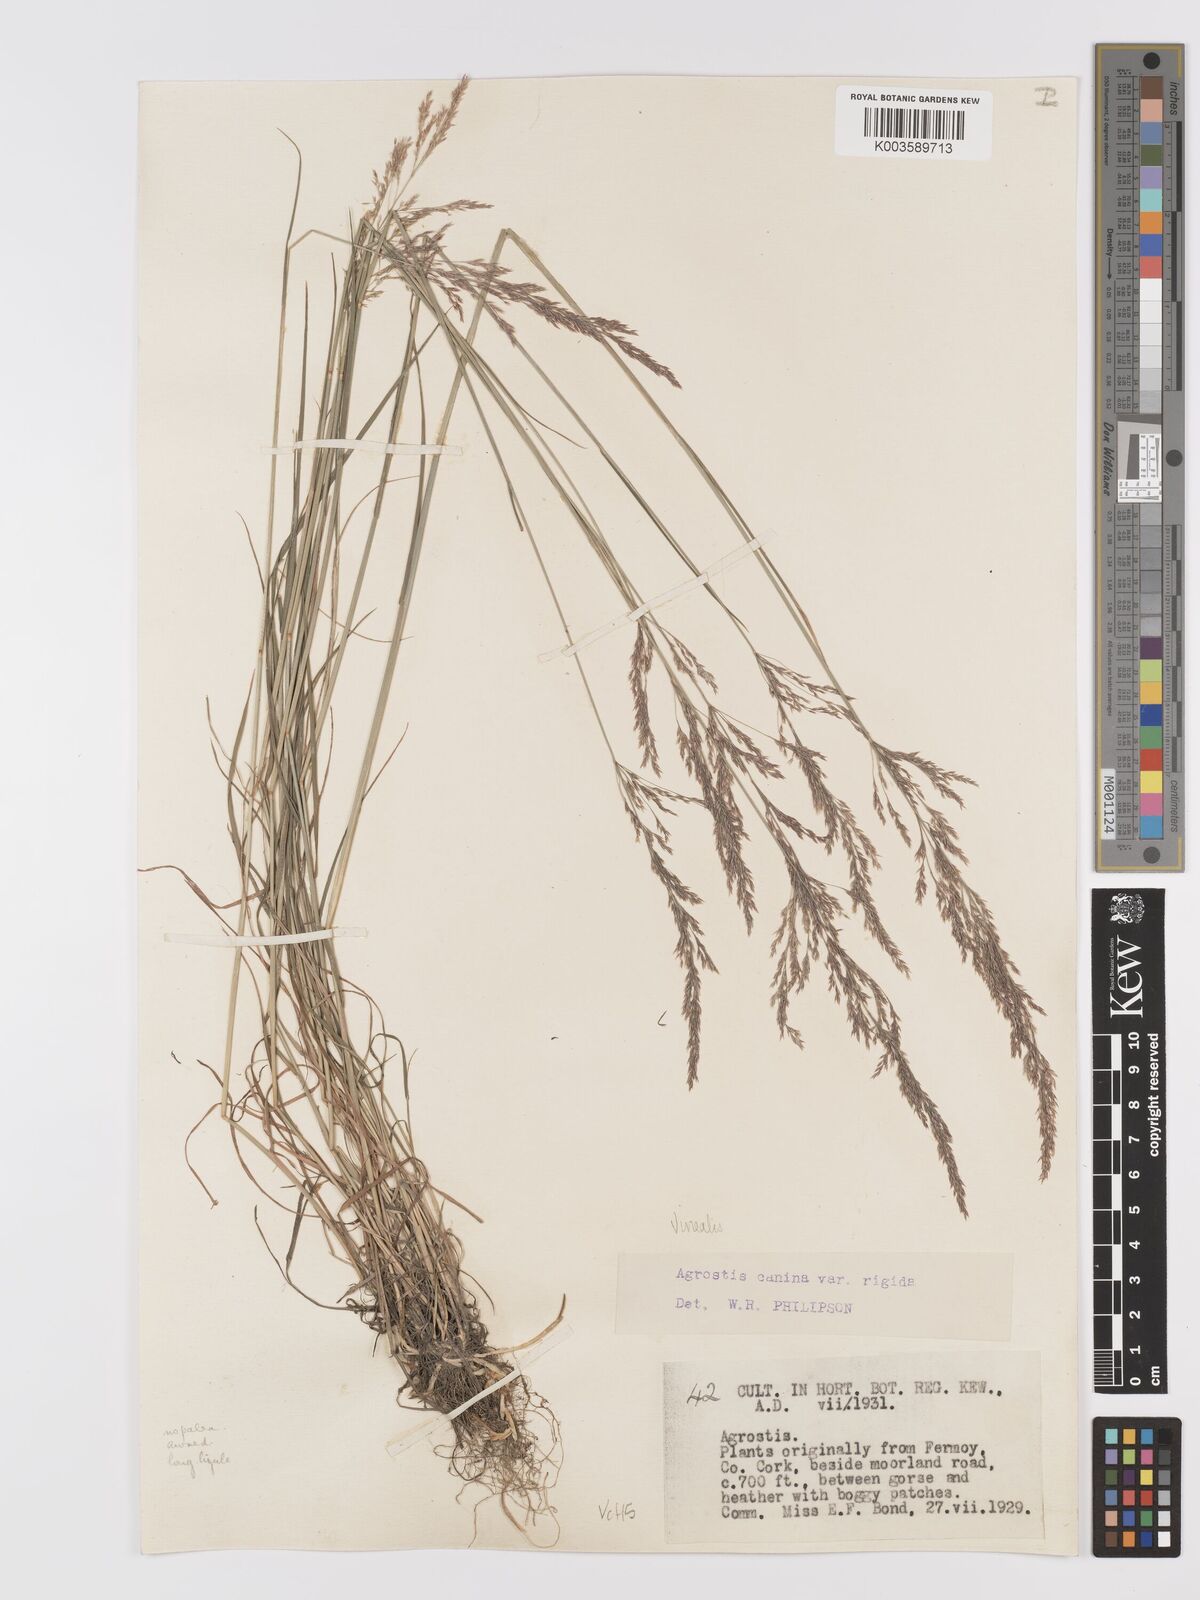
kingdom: Plantae
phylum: Tracheophyta
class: Liliopsida
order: Poales
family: Poaceae
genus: Agrostis
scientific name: Agrostis
